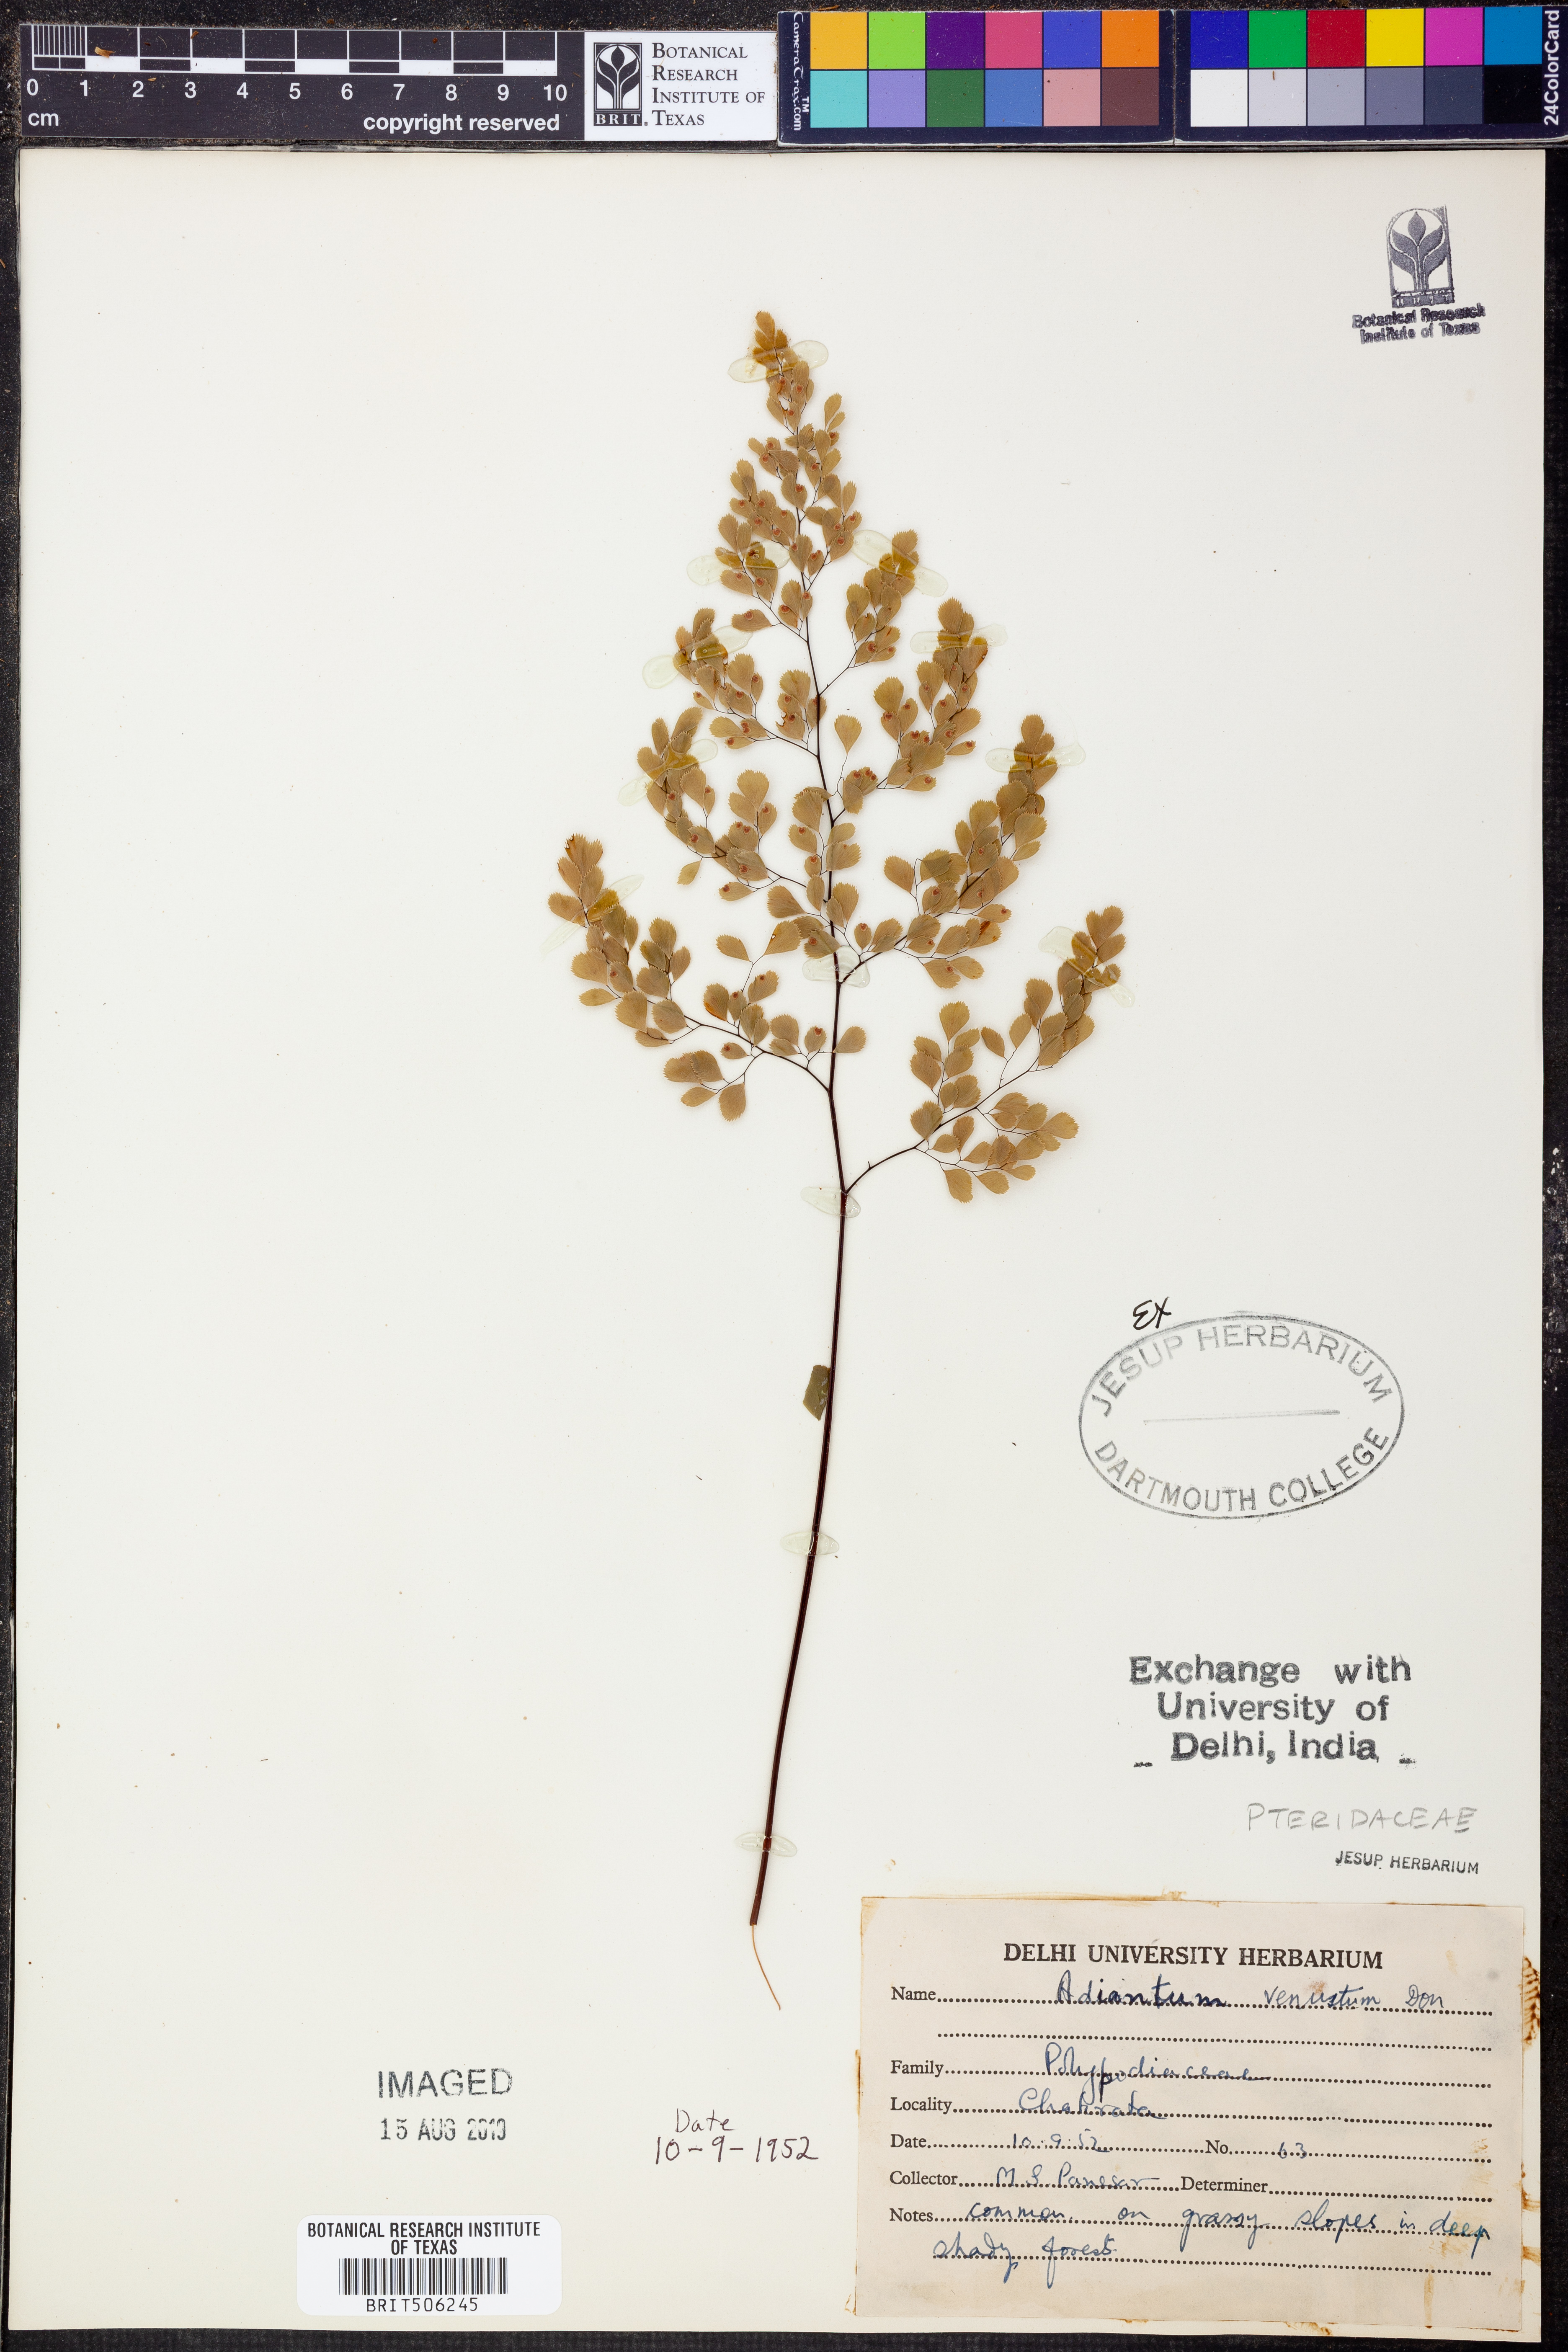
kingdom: Plantae
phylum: Tracheophyta
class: Polypodiopsida
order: Polypodiales
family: Pteridaceae
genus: Adiantum
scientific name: Adiantum venustum
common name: Evergreen maidenhair
